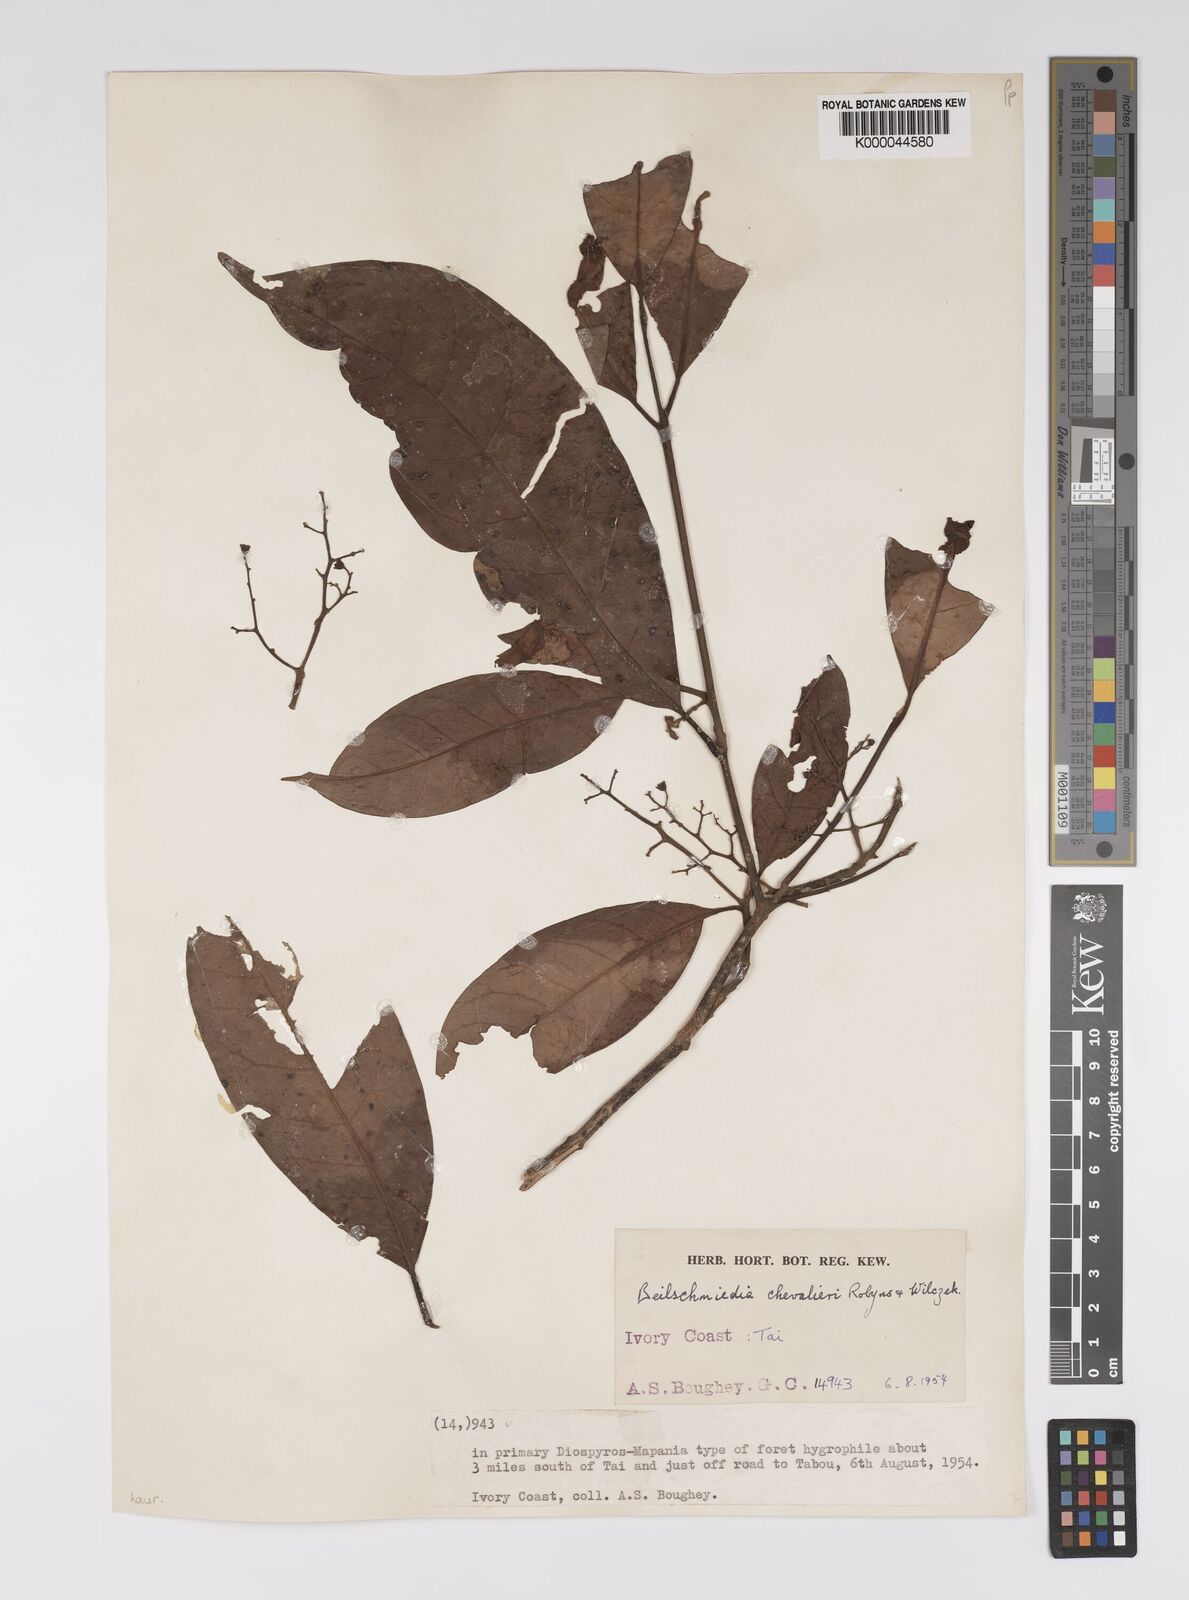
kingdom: Plantae
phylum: Tracheophyta
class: Magnoliopsida
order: Laurales
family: Lauraceae
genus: Beilschmiedia
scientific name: Beilschmiedia chevalieri
